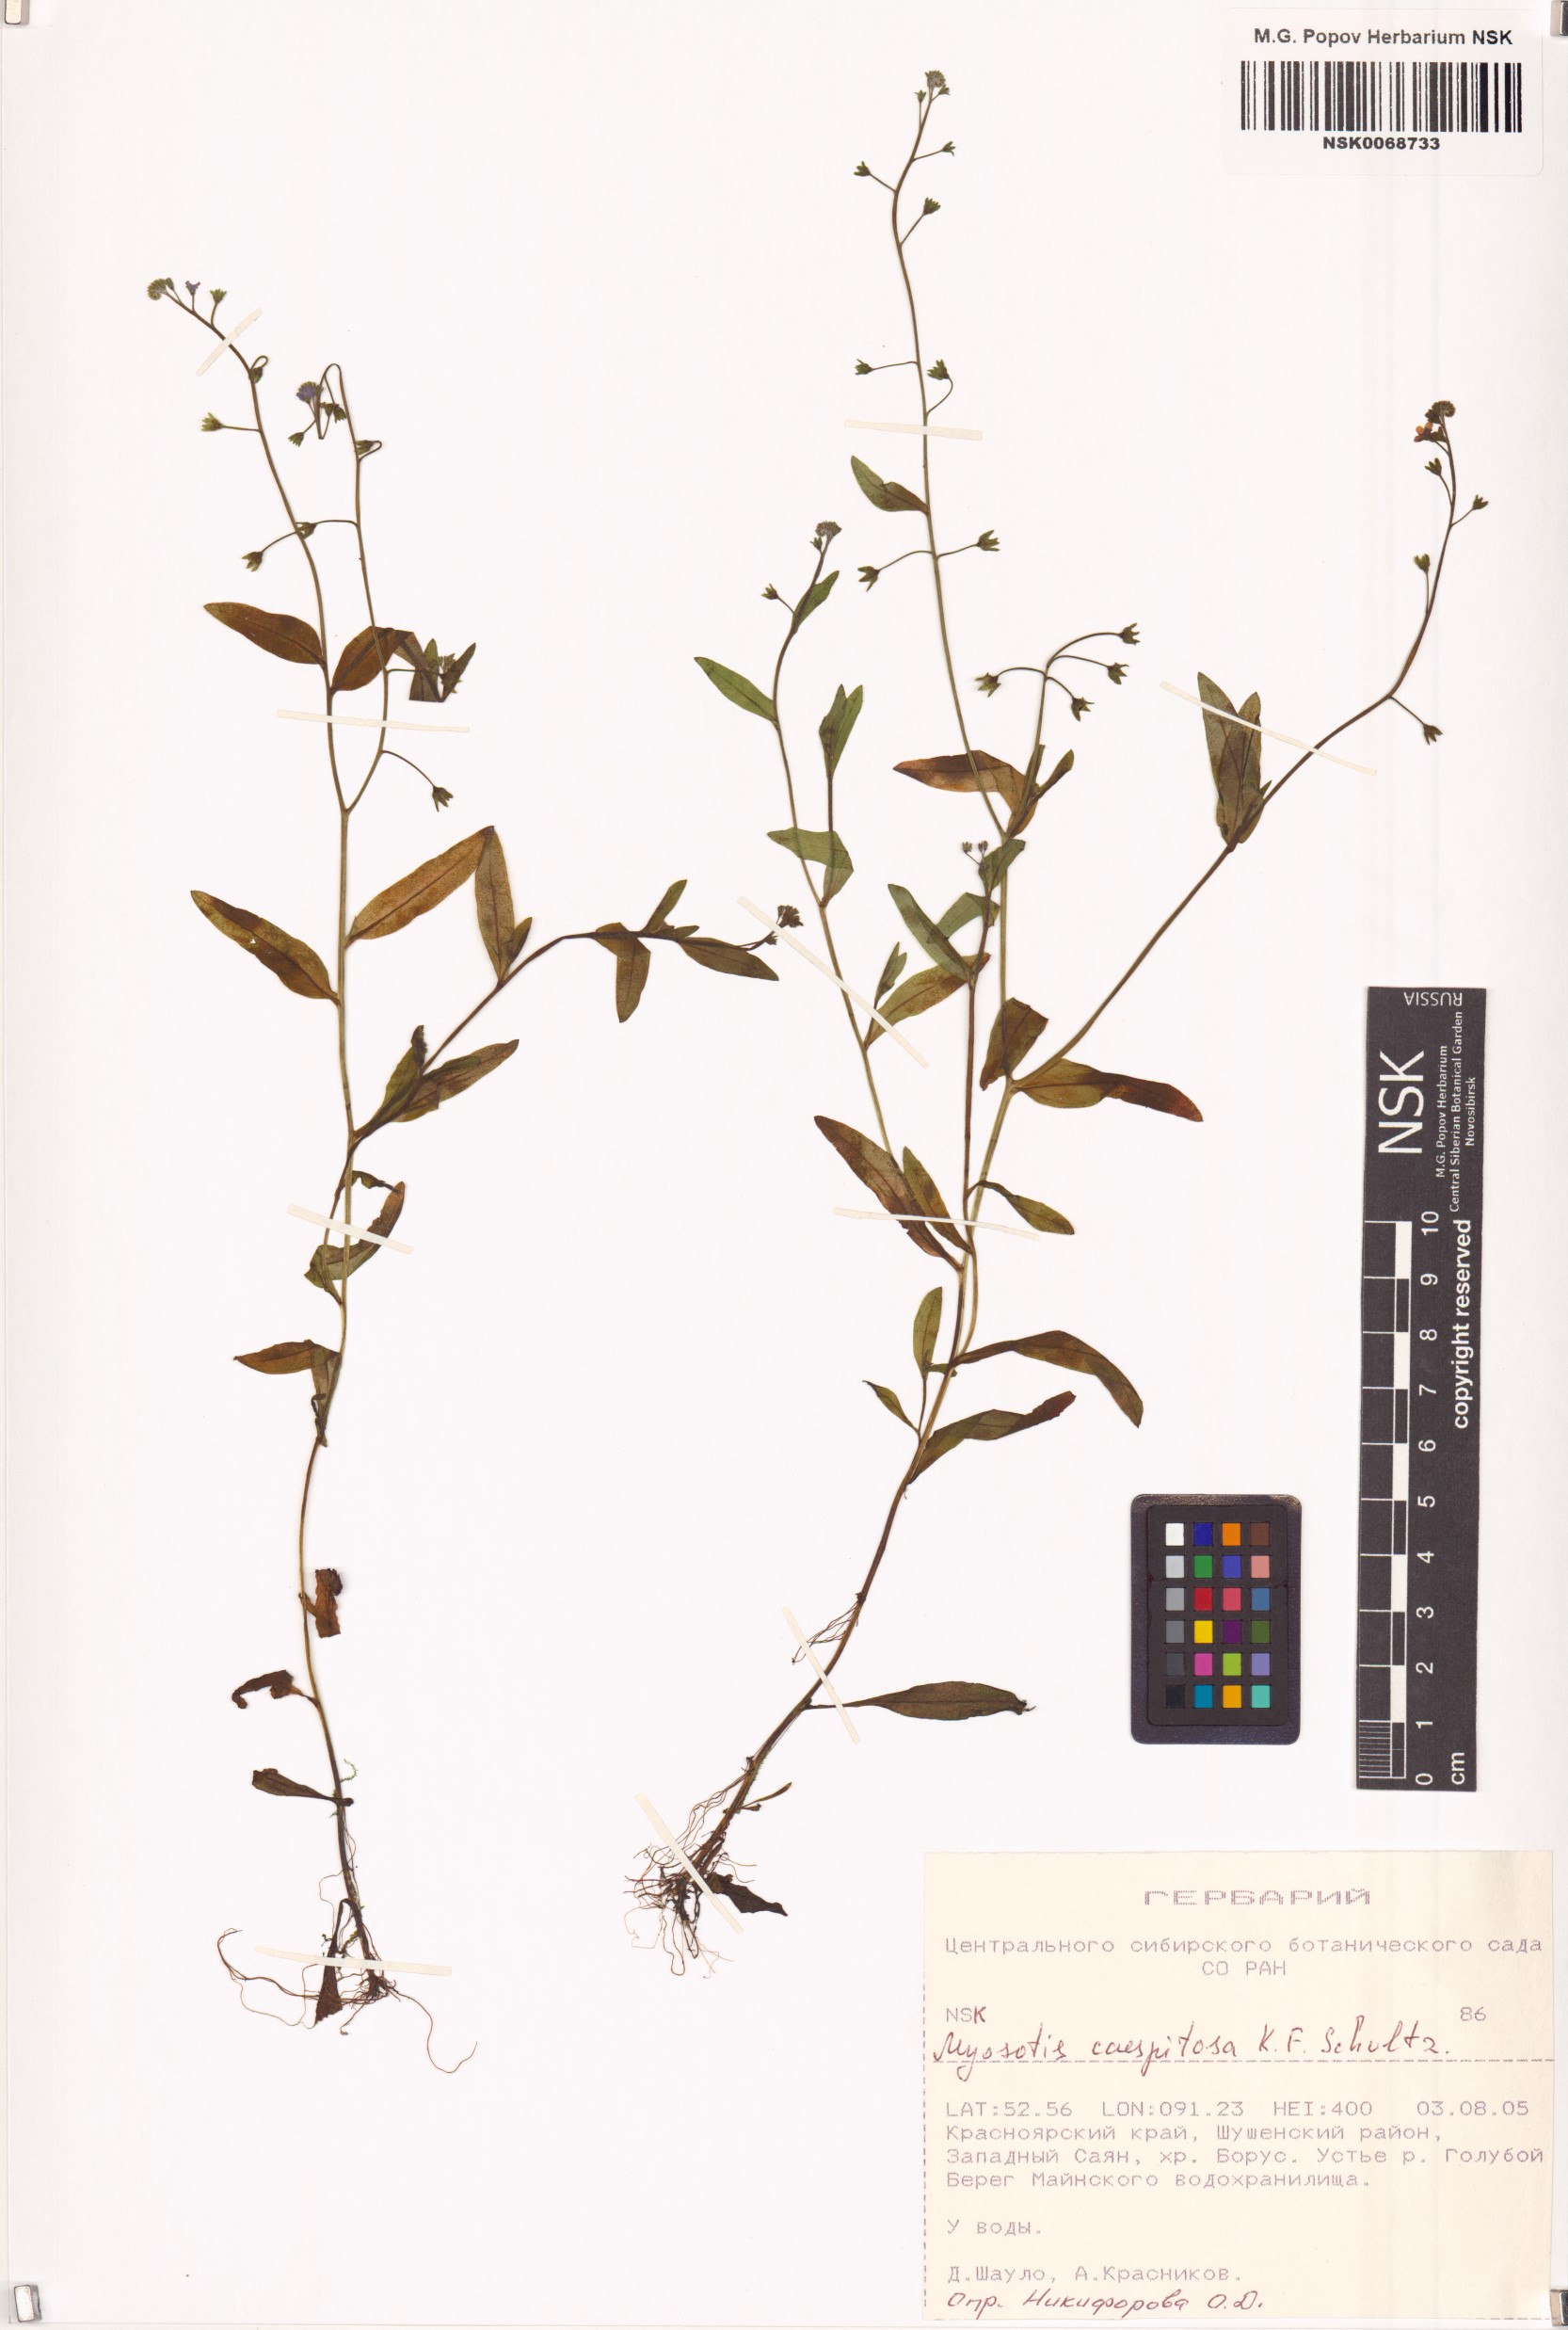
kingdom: Plantae
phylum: Tracheophyta
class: Magnoliopsida
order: Boraginales
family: Boraginaceae
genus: Myosotis
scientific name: Myosotis laxa
